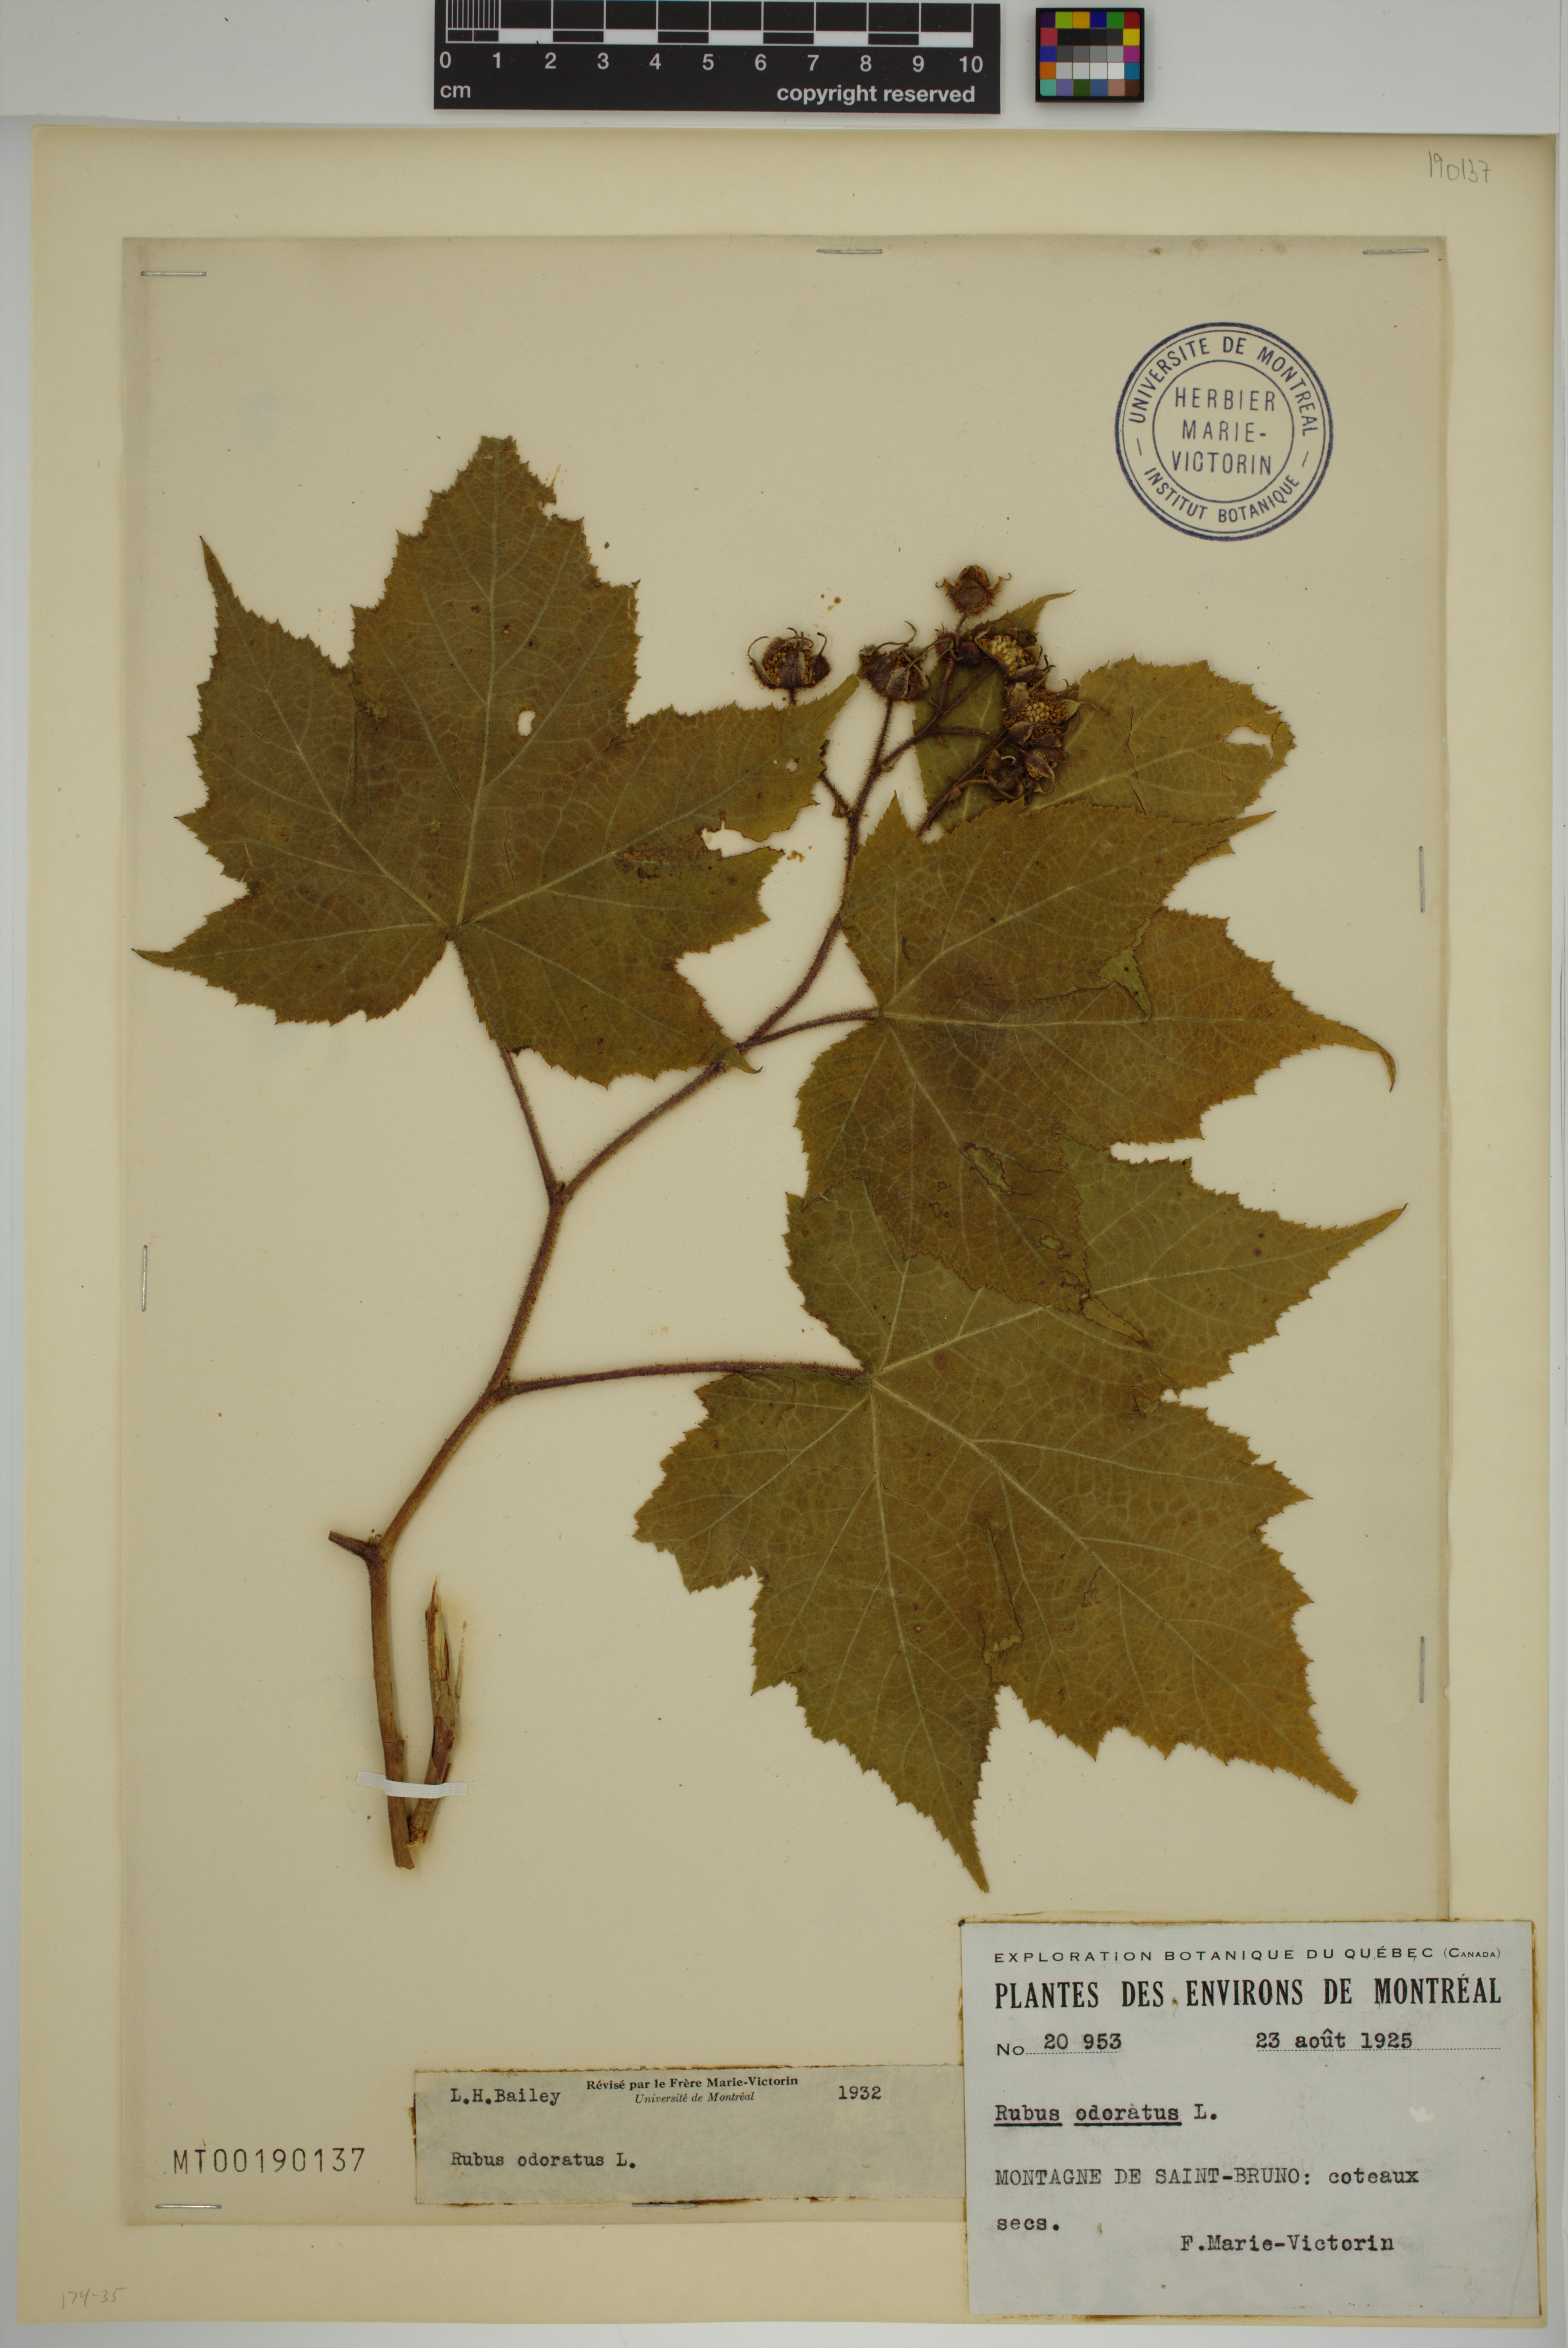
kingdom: Plantae
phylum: Tracheophyta
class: Magnoliopsida
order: Rosales
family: Rosaceae
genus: Rubus
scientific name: Rubus odoratus
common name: Purple-flowered raspberry
